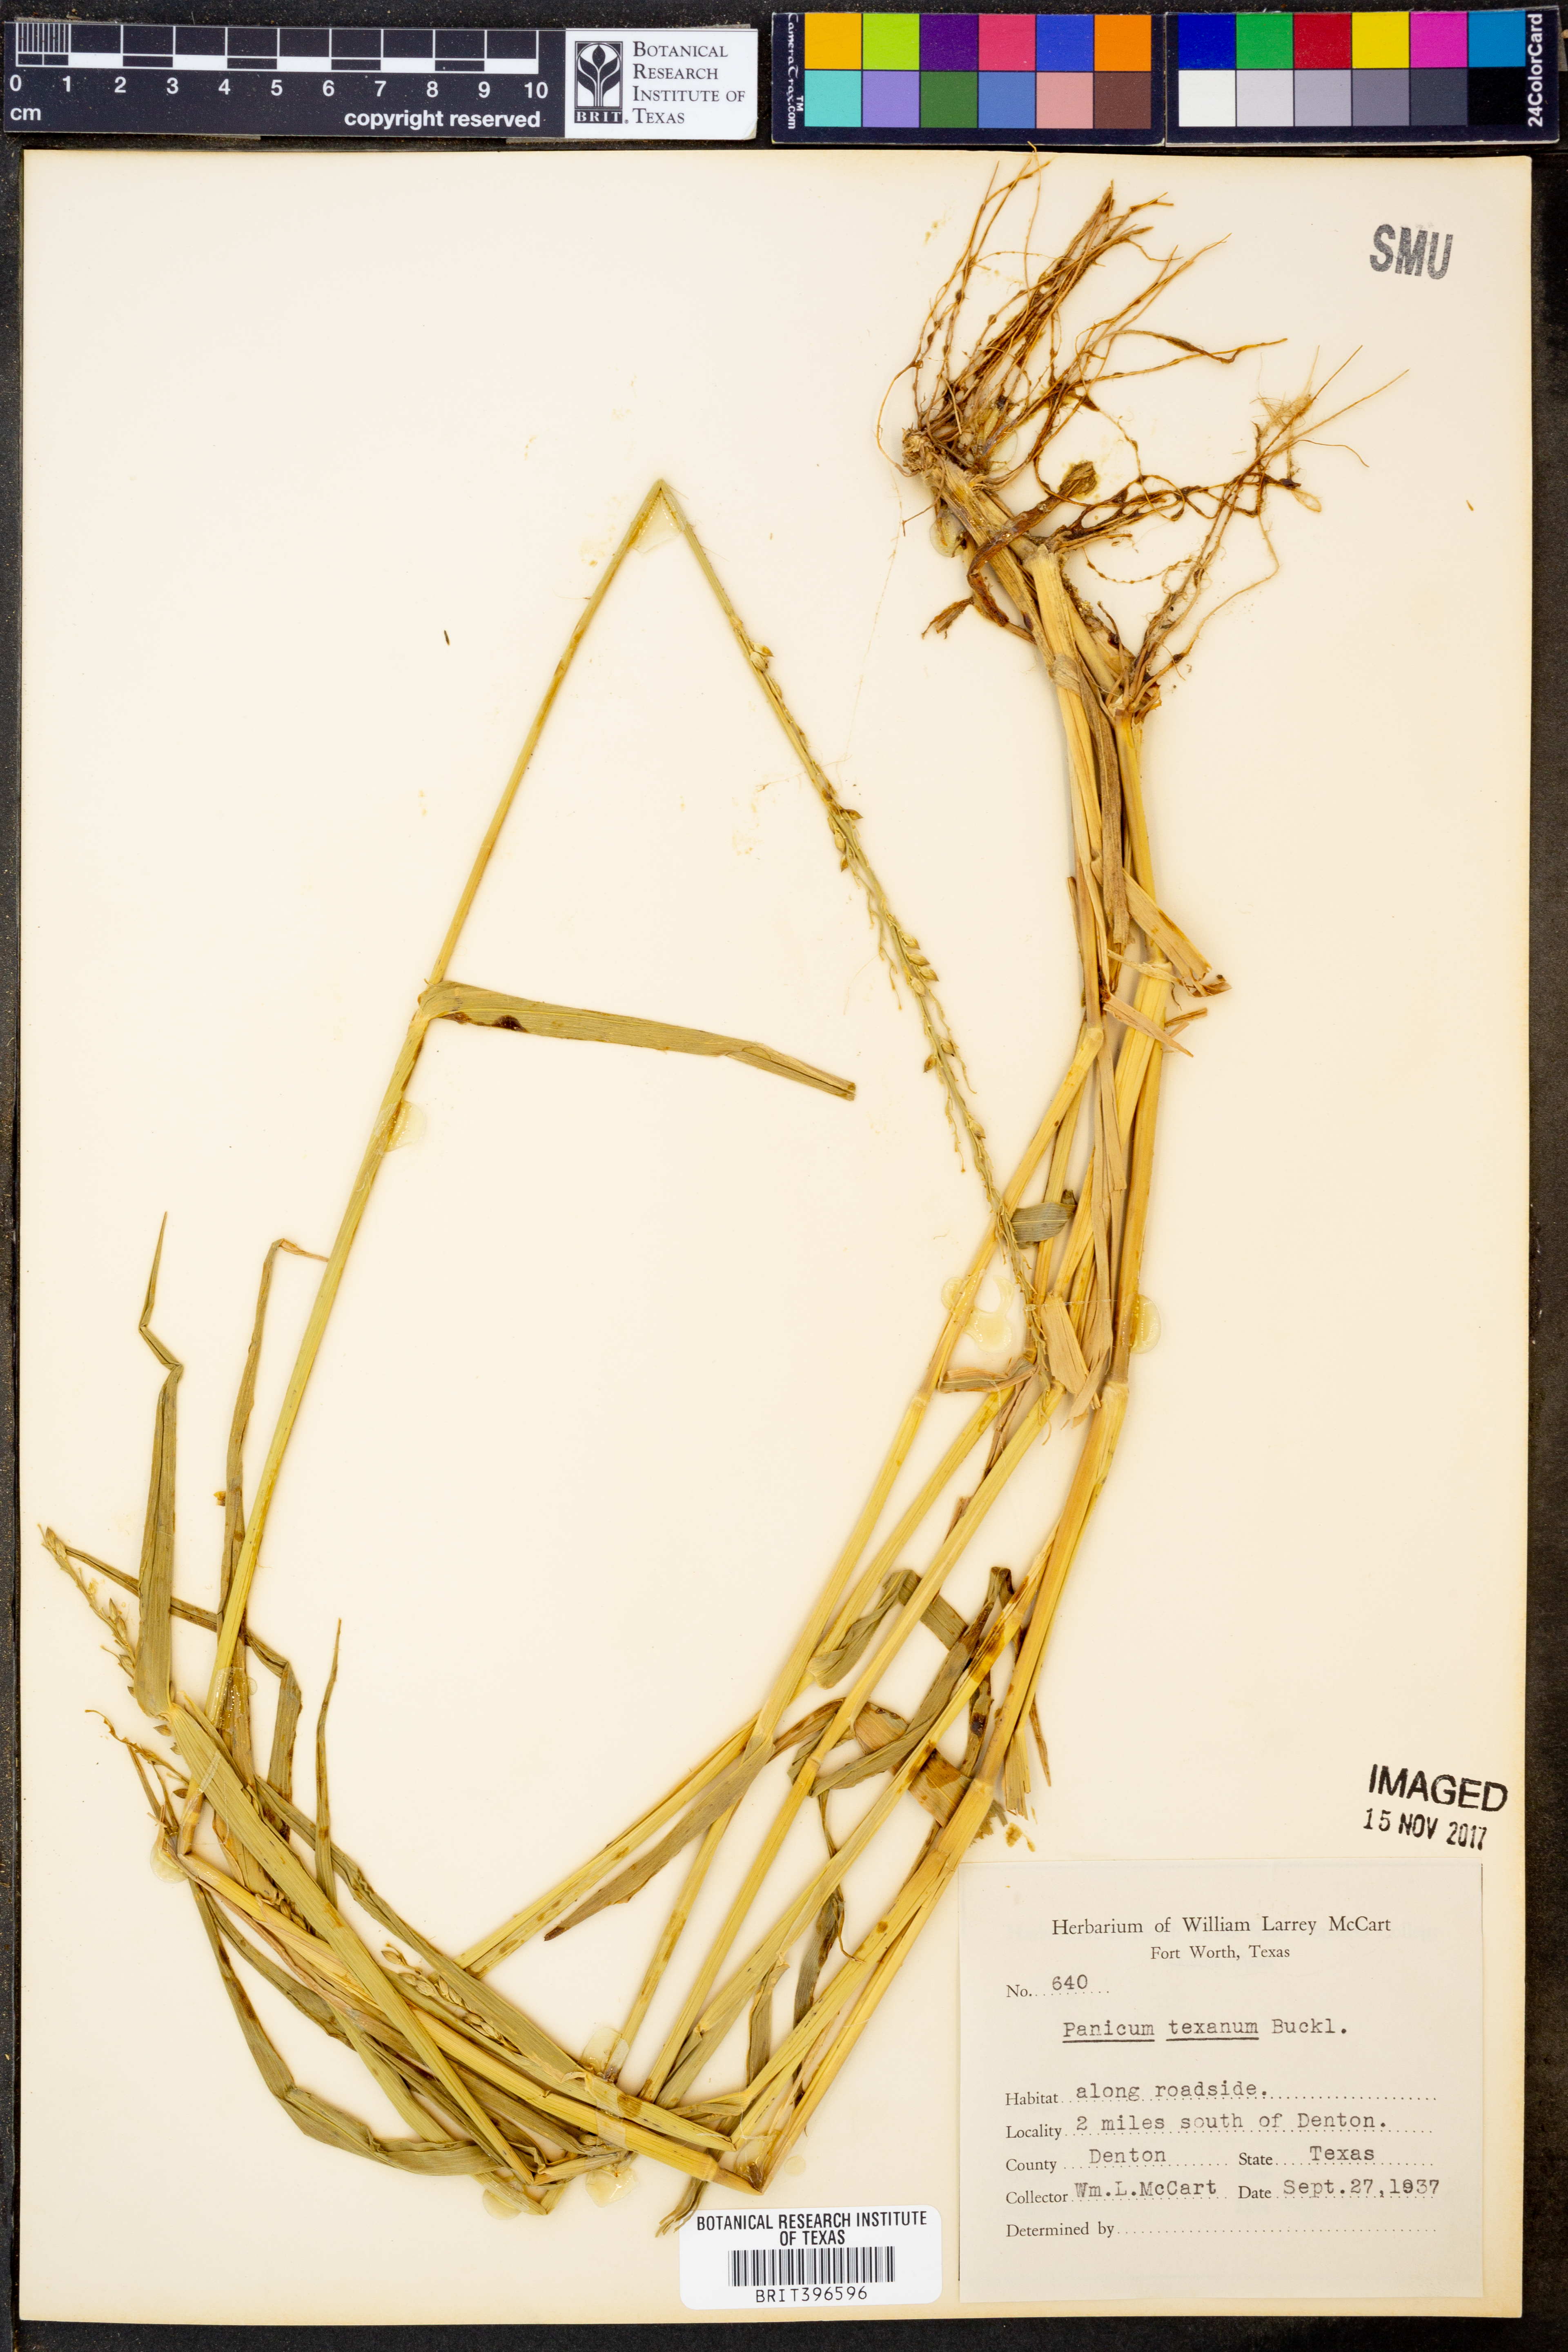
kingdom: Plantae
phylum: Tracheophyta
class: Liliopsida
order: Poales
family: Poaceae
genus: Urochloa
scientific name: Urochloa texana
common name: Texas millet
